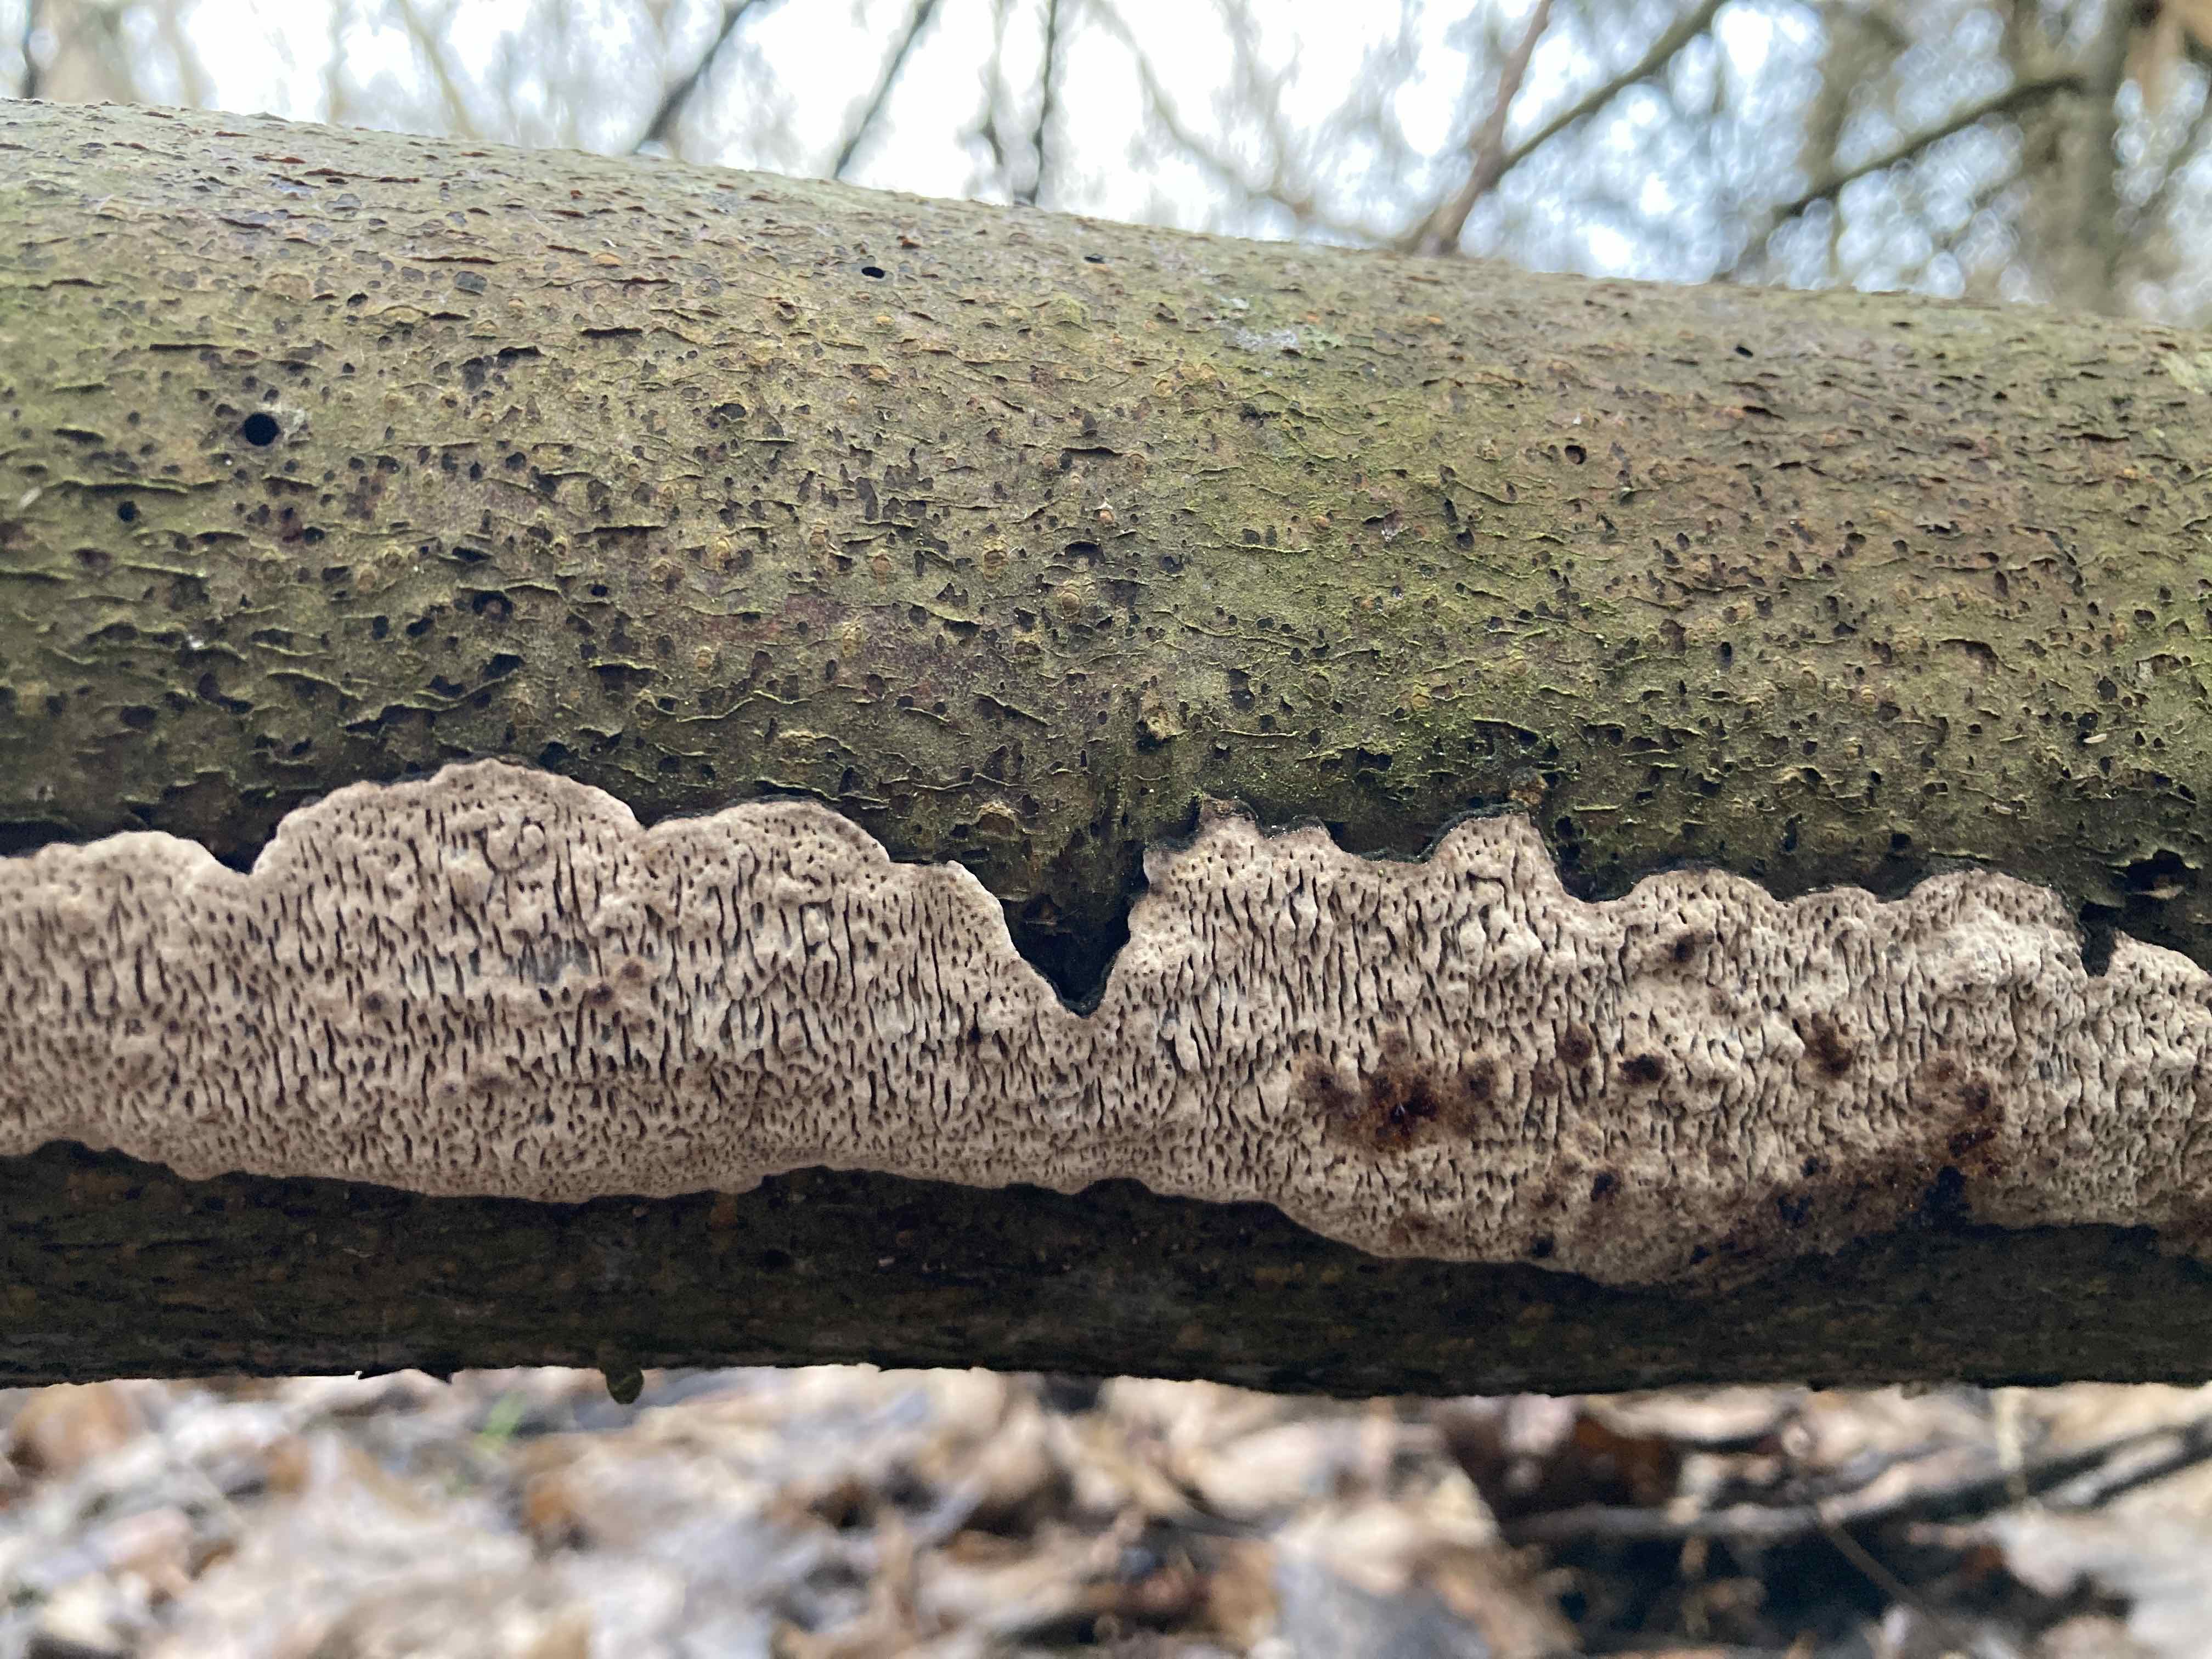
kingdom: Fungi
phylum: Basidiomycota
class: Agaricomycetes
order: Polyporales
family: Polyporaceae
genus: Podofomes
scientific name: Podofomes mollis
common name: blød begporesvamp
